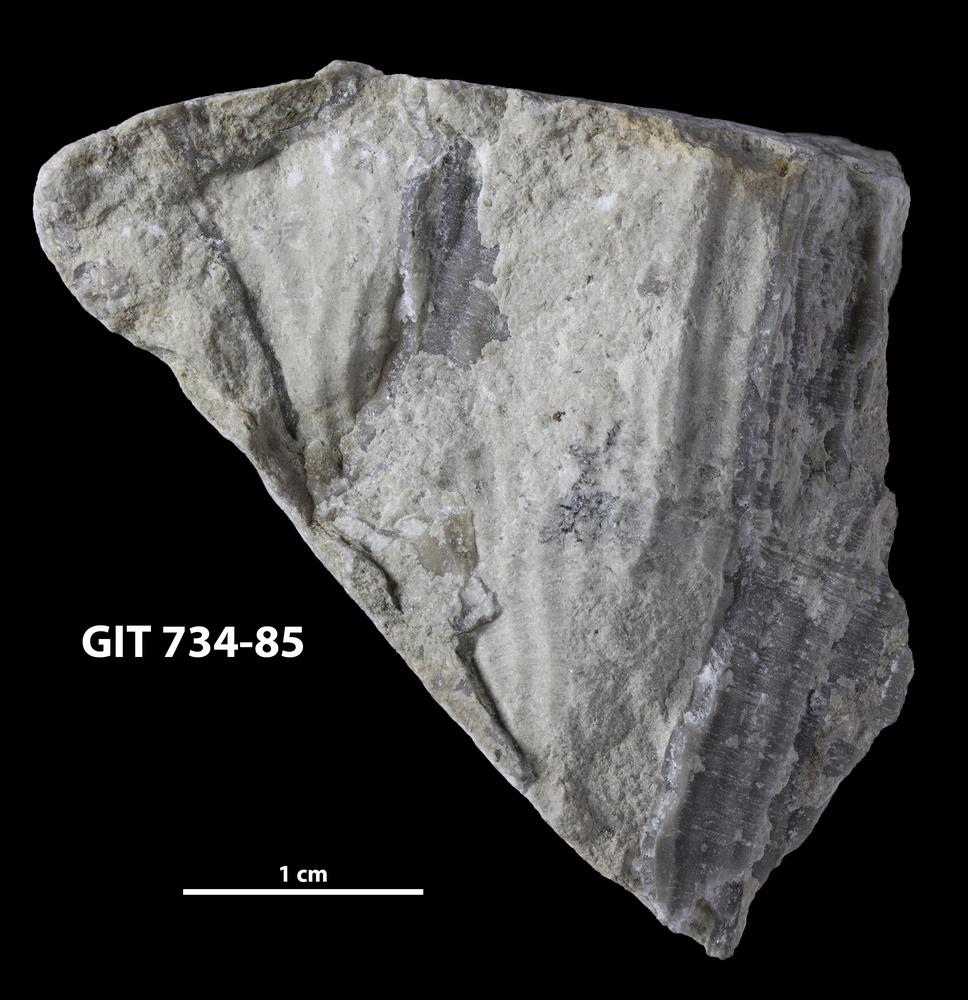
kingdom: Animalia
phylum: Cnidaria
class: Anthozoa
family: Cateniporidae
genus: Catenipora
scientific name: Catenipora
